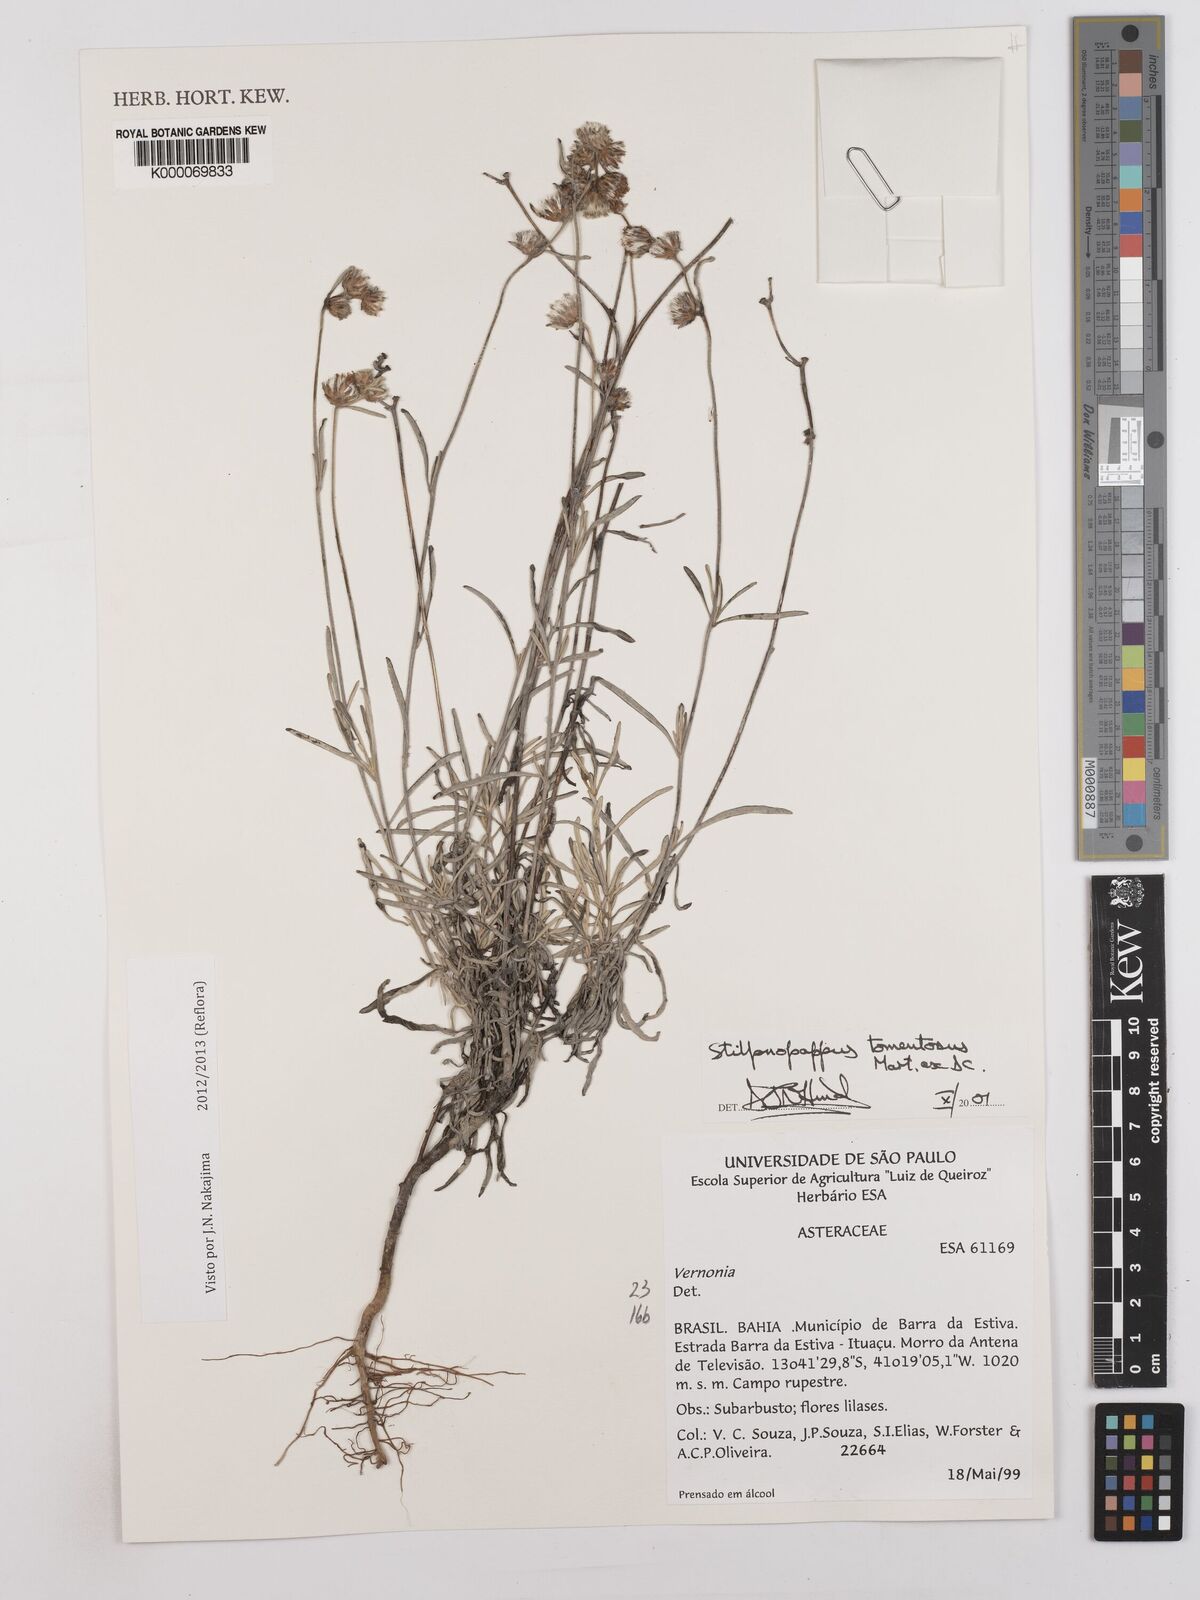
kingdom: Plantae
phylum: Tracheophyta
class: Magnoliopsida
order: Asterales
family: Asteraceae
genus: Stilpnopappus
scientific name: Stilpnopappus tomentosus
